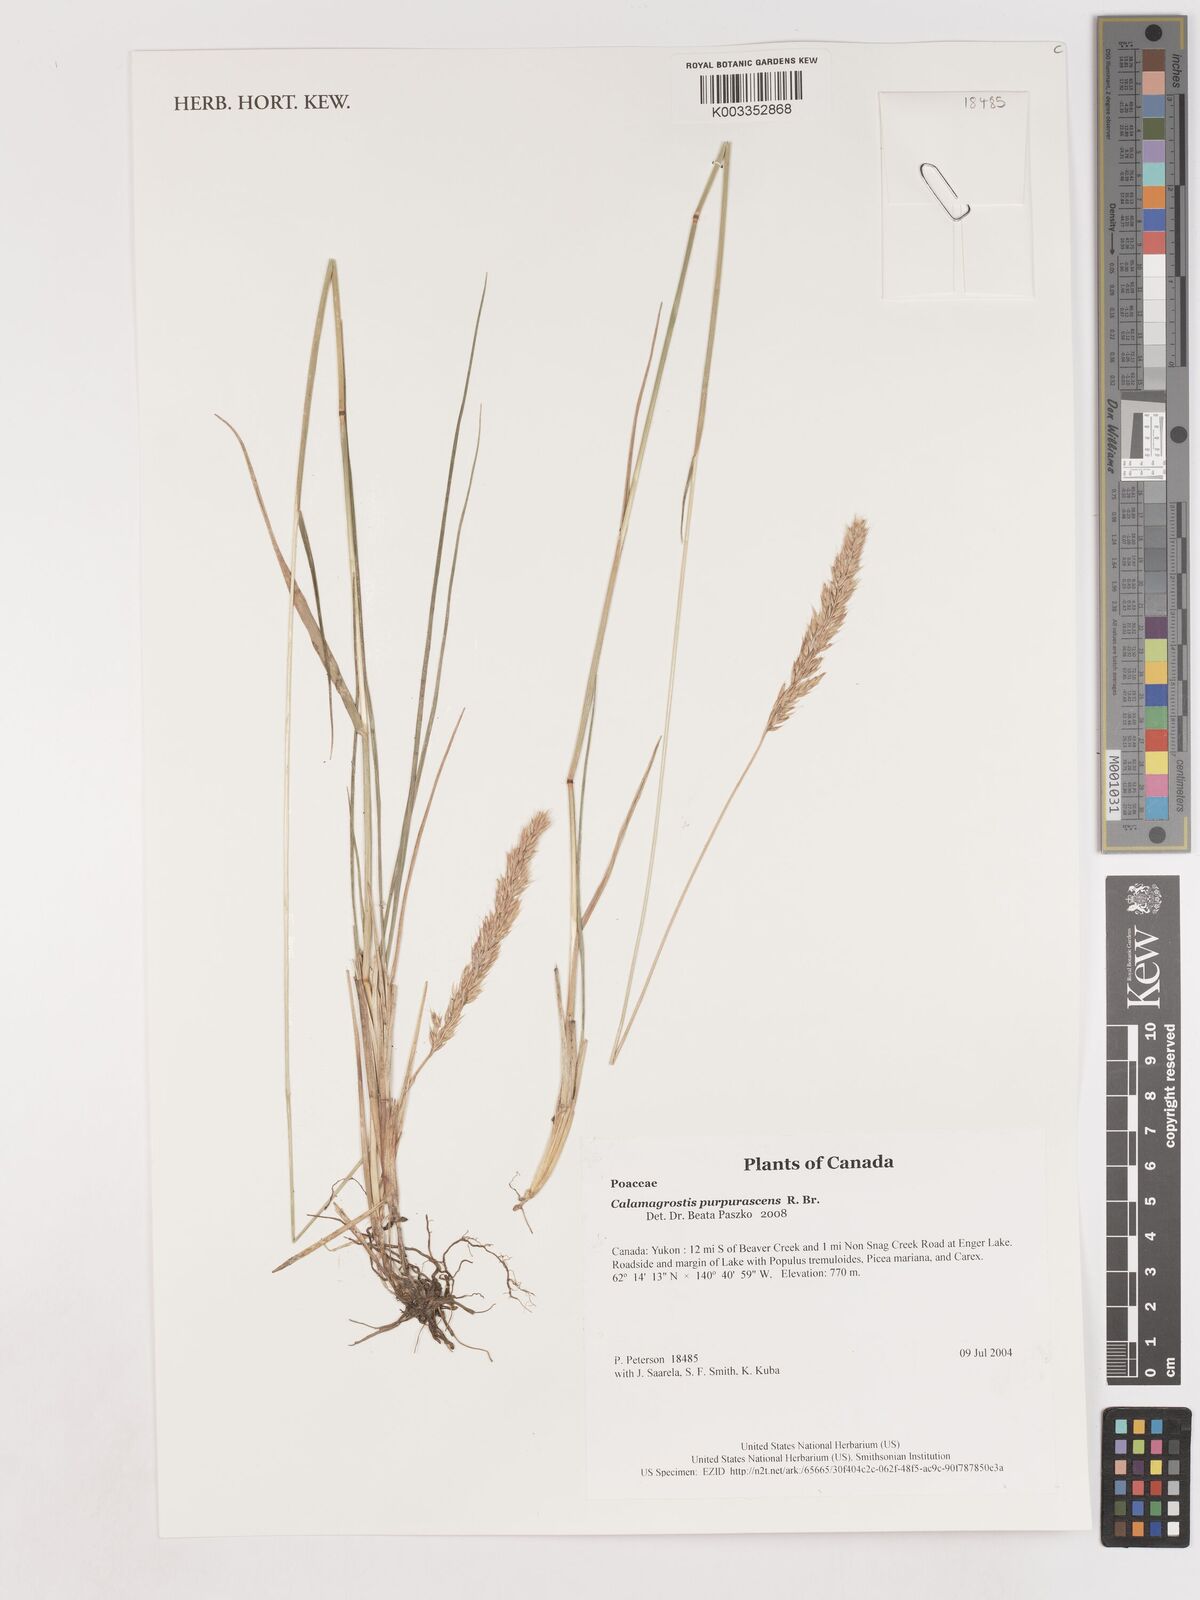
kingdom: Plantae
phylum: Tracheophyta
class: Liliopsida
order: Poales
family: Poaceae
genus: Calamagrostis
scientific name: Calamagrostis purpurascens
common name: Purple reedgrass
